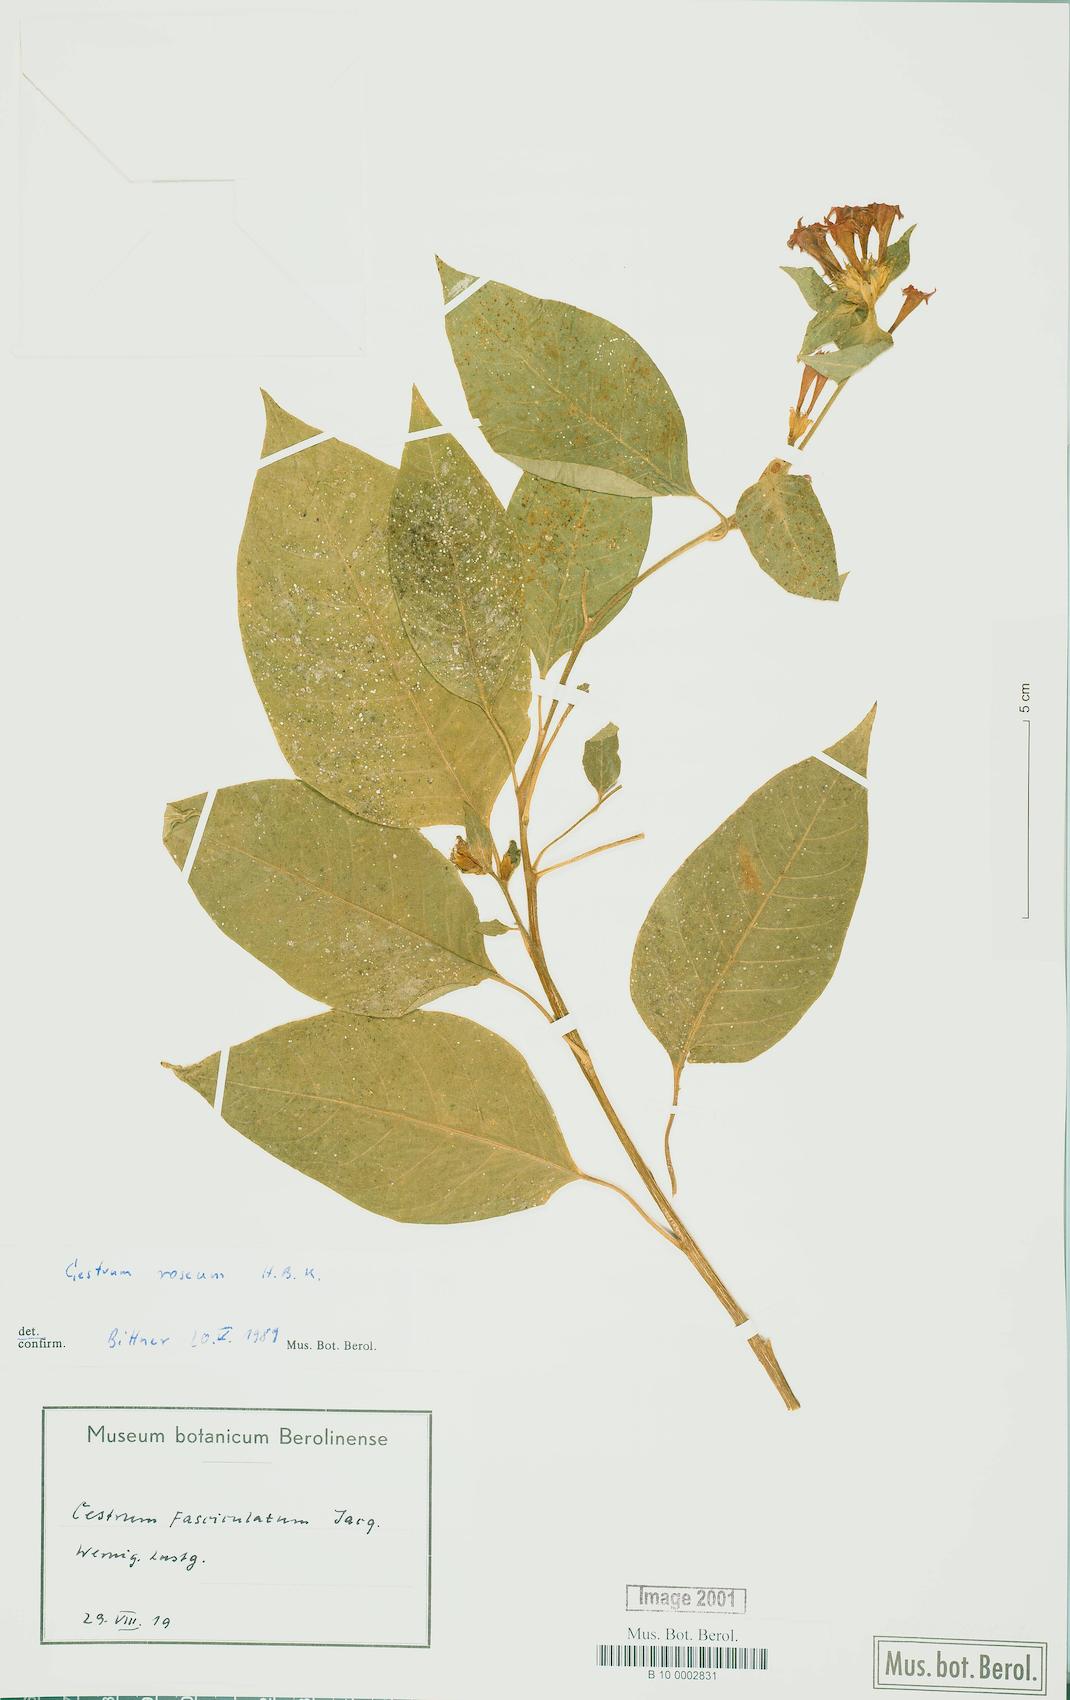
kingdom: Plantae
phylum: Tracheophyta
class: Magnoliopsida
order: Solanales
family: Solanaceae
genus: Cestrum
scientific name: Cestrum roseum
